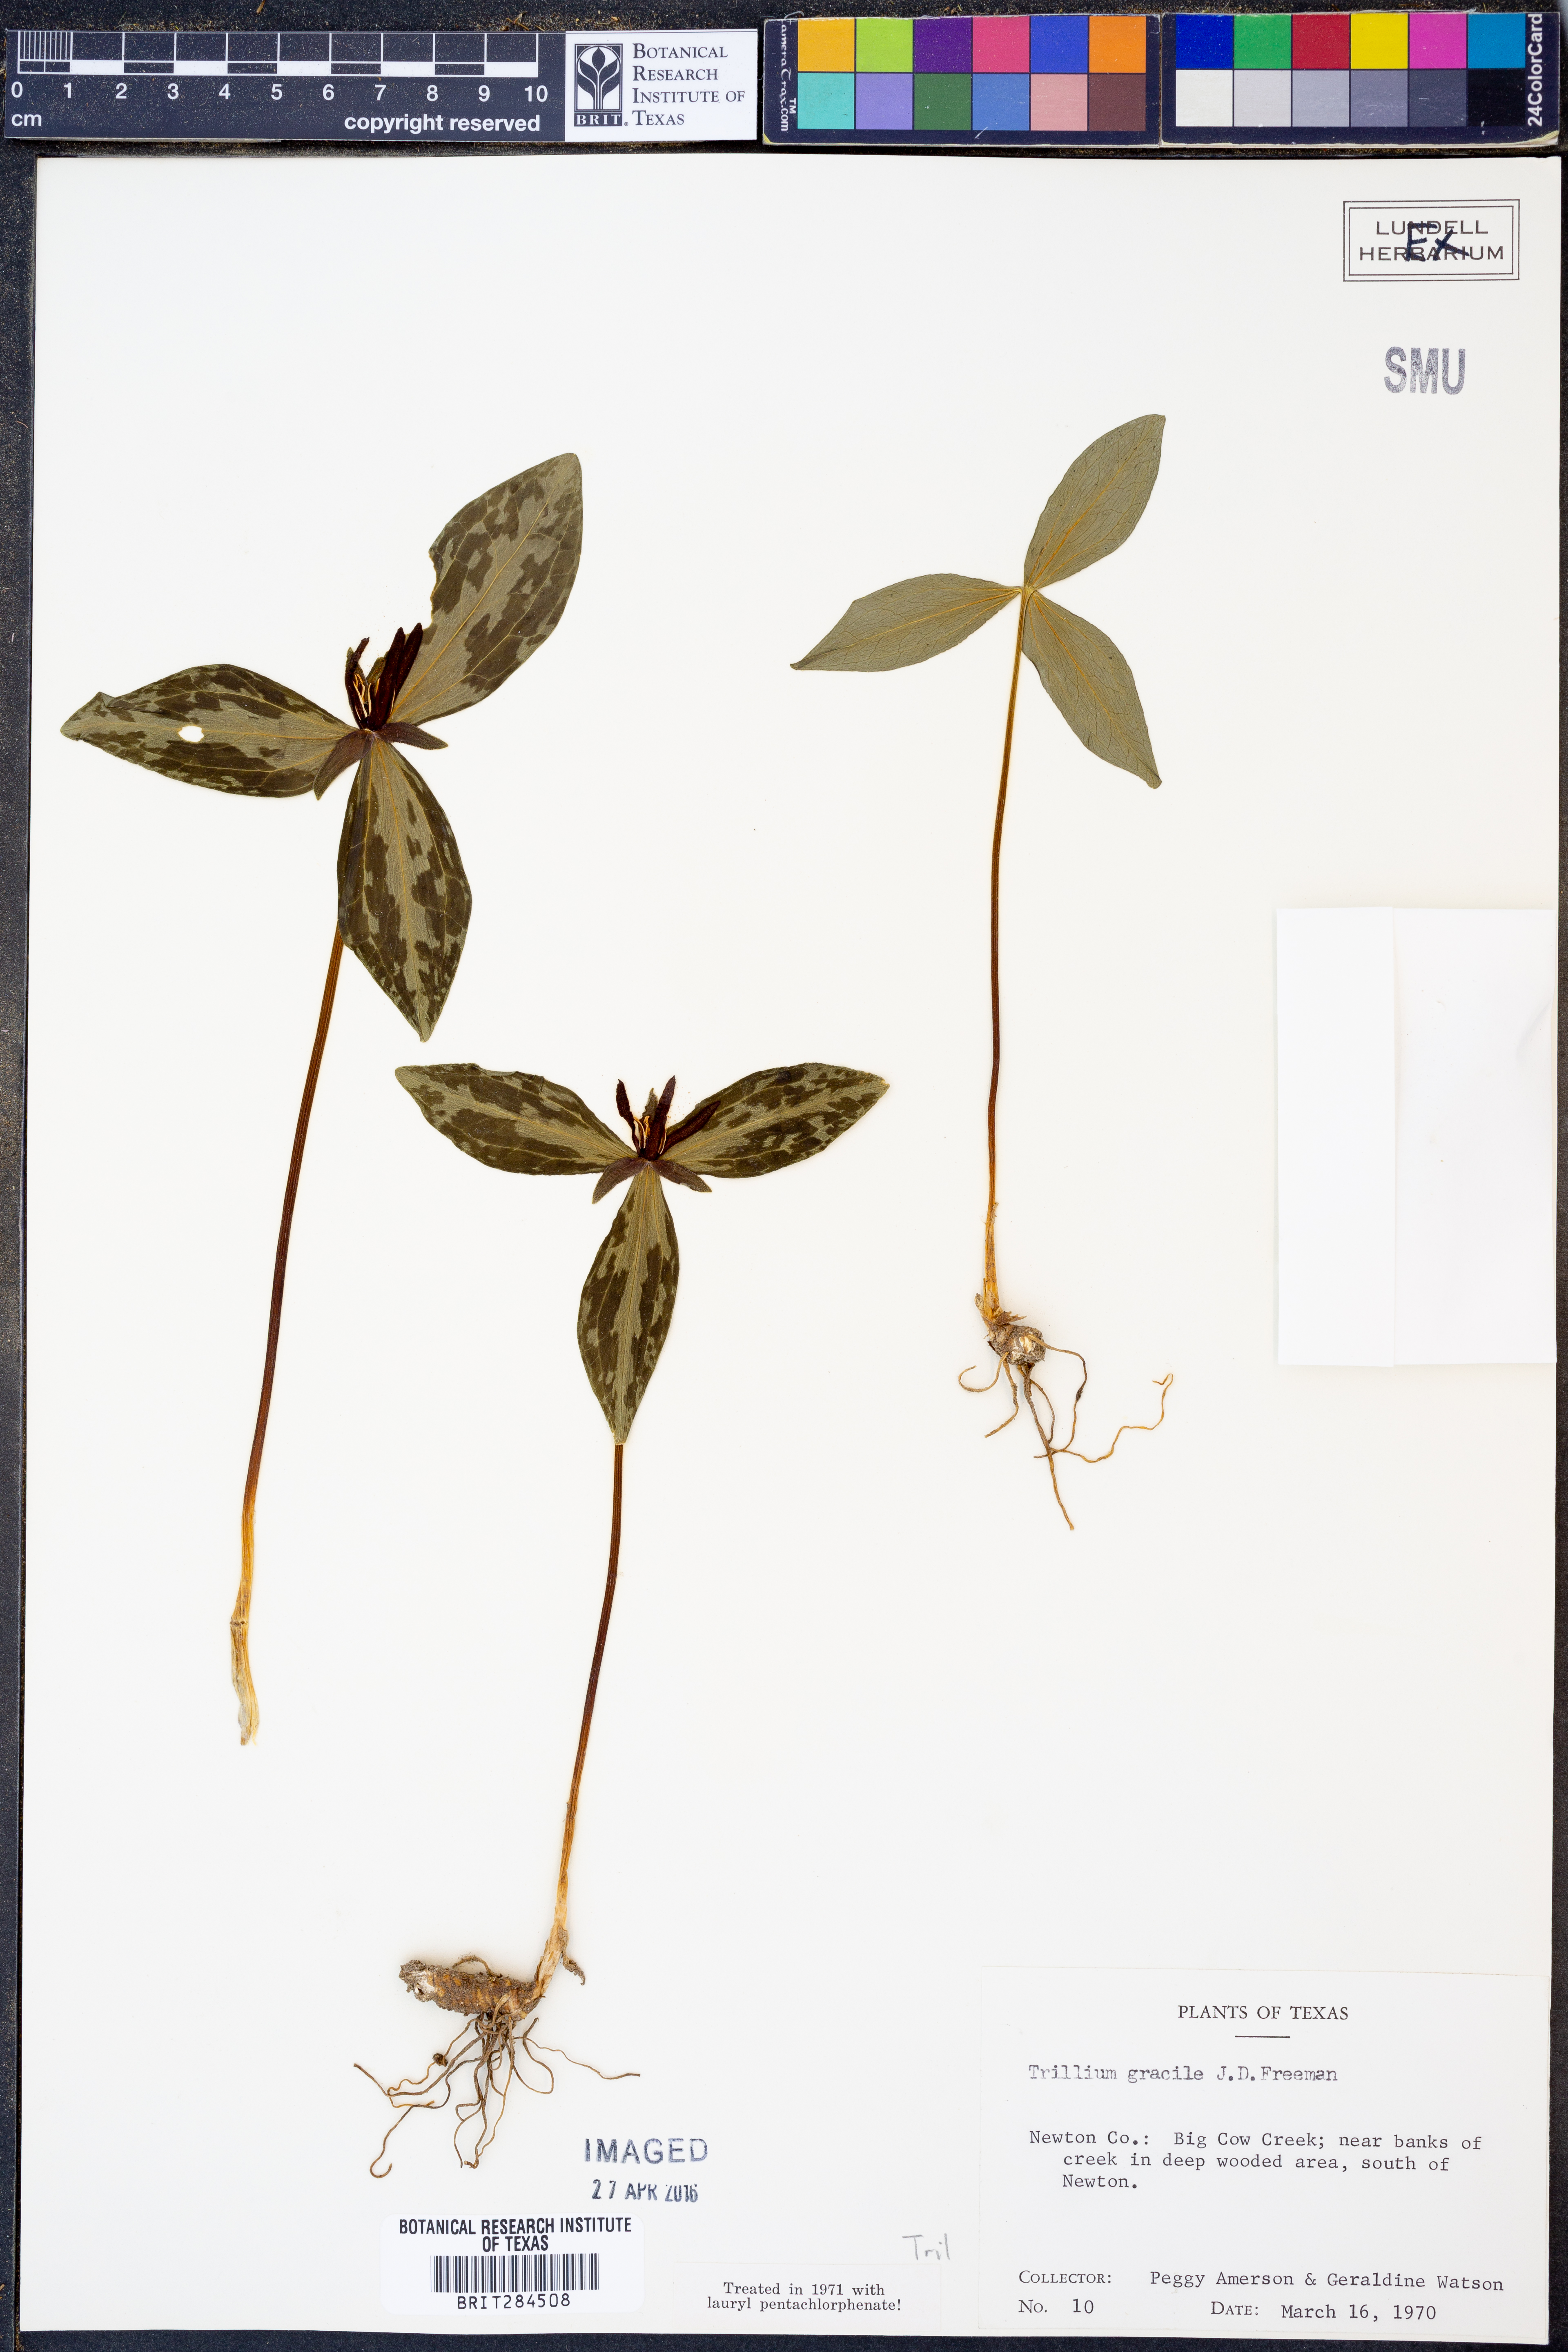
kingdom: Plantae
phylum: Tracheophyta
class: Liliopsida
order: Liliales
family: Melanthiaceae
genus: Trillium
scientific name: Trillium gracile
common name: Graceful trillium
